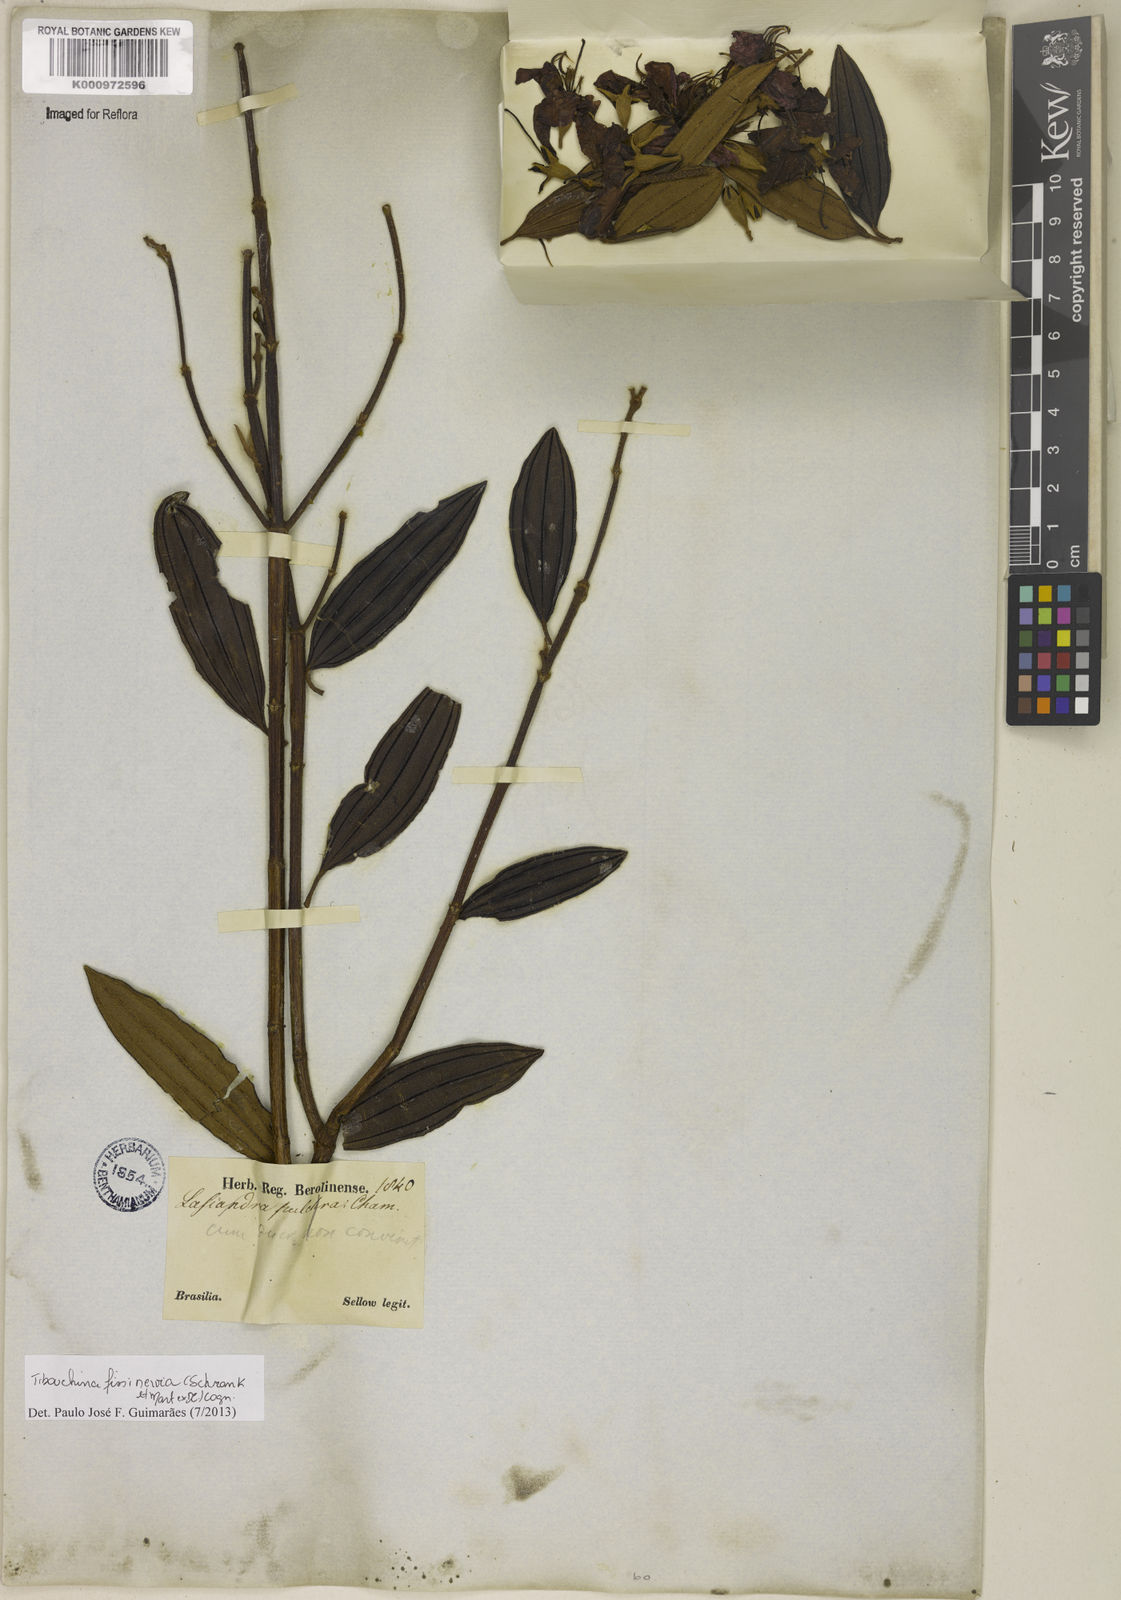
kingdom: Plantae
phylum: Tracheophyta
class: Magnoliopsida
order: Myrtales
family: Melastomataceae
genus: Pleroma
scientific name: Pleroma fissinervium
